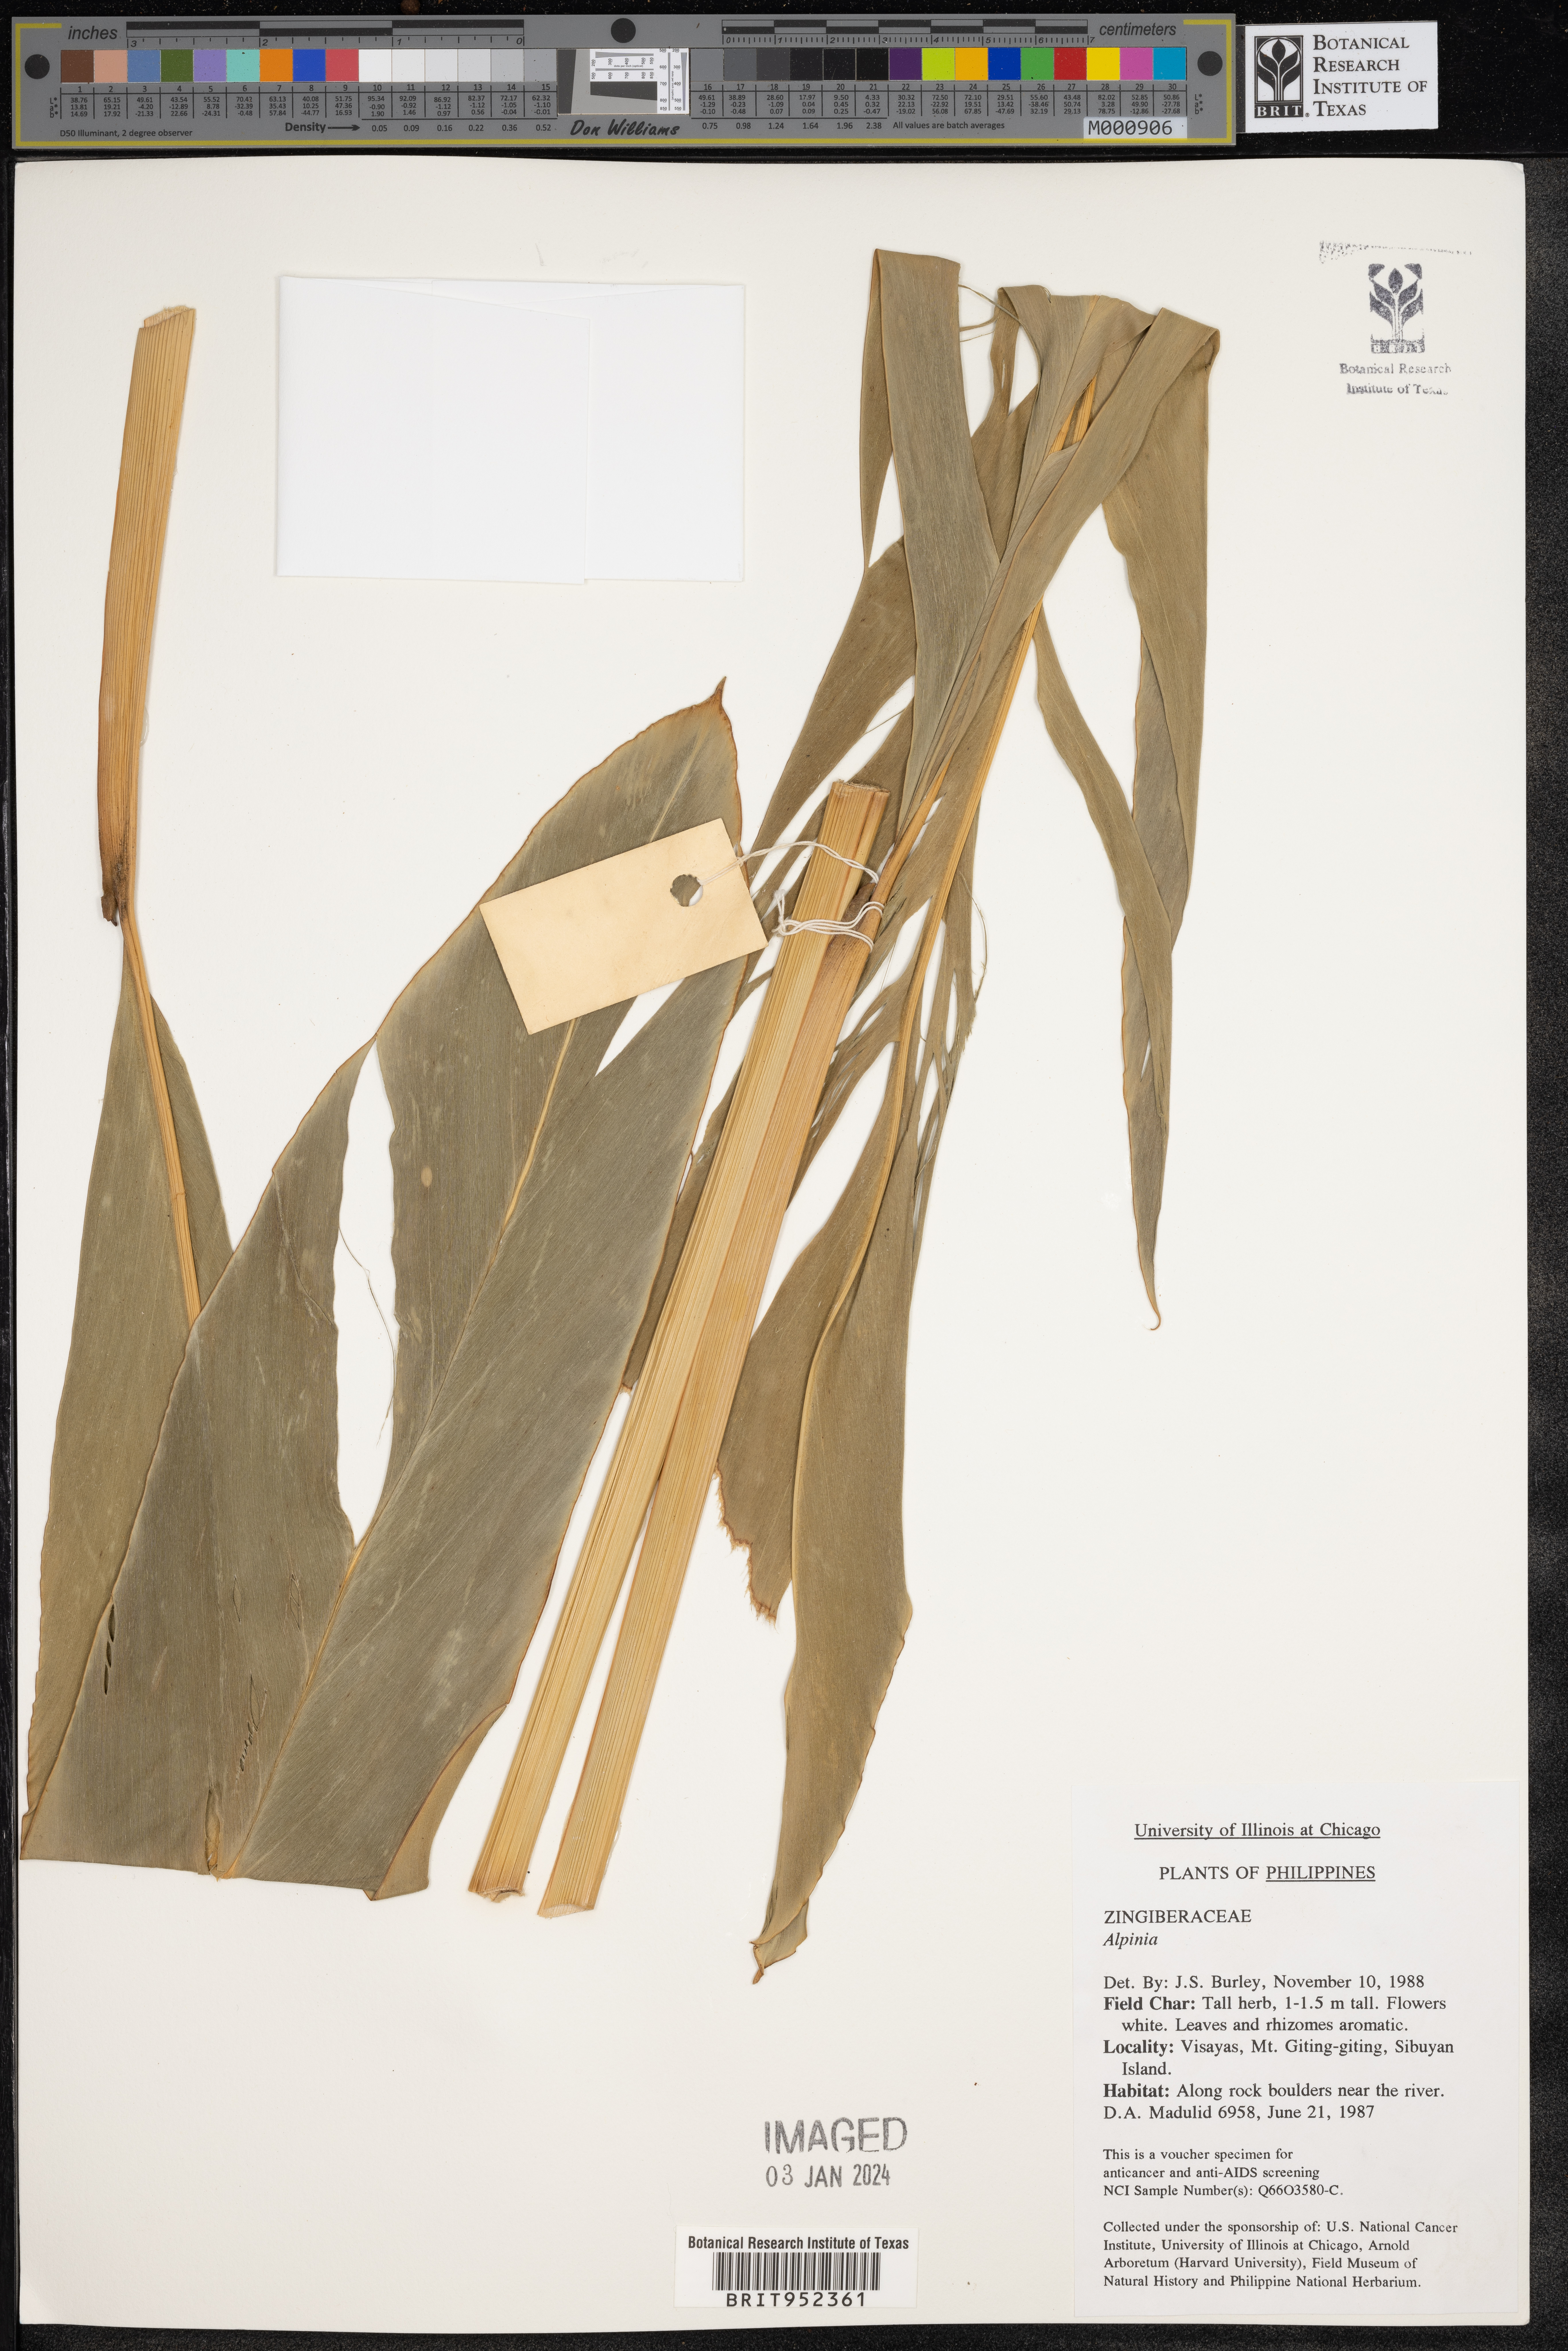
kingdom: Plantae
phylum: Tracheophyta
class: Liliopsida
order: Zingiberales
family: Zingiberaceae
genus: Alpinia
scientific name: Alpinia
